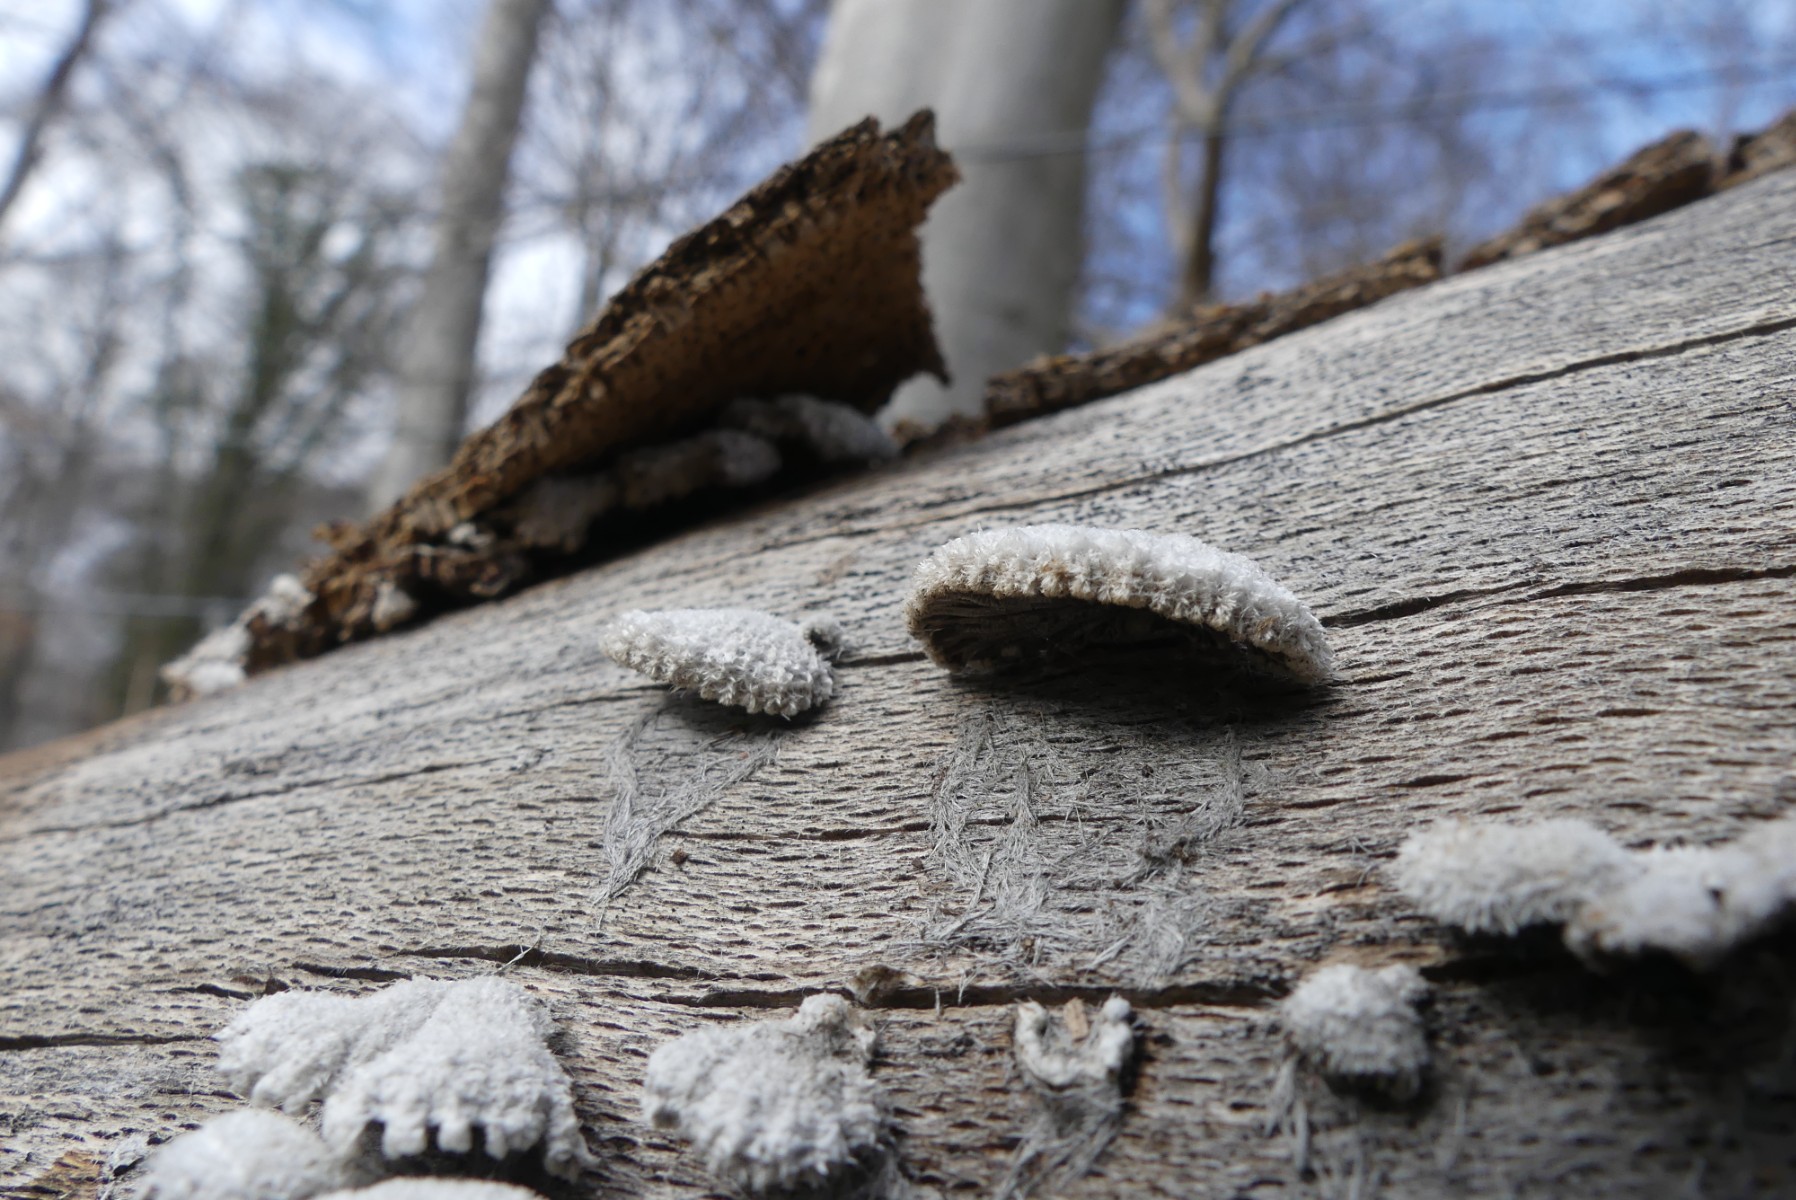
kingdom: Fungi
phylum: Basidiomycota
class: Agaricomycetes
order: Agaricales
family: Schizophyllaceae
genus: Schizophyllum
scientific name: Schizophyllum commune
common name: kløvblad
